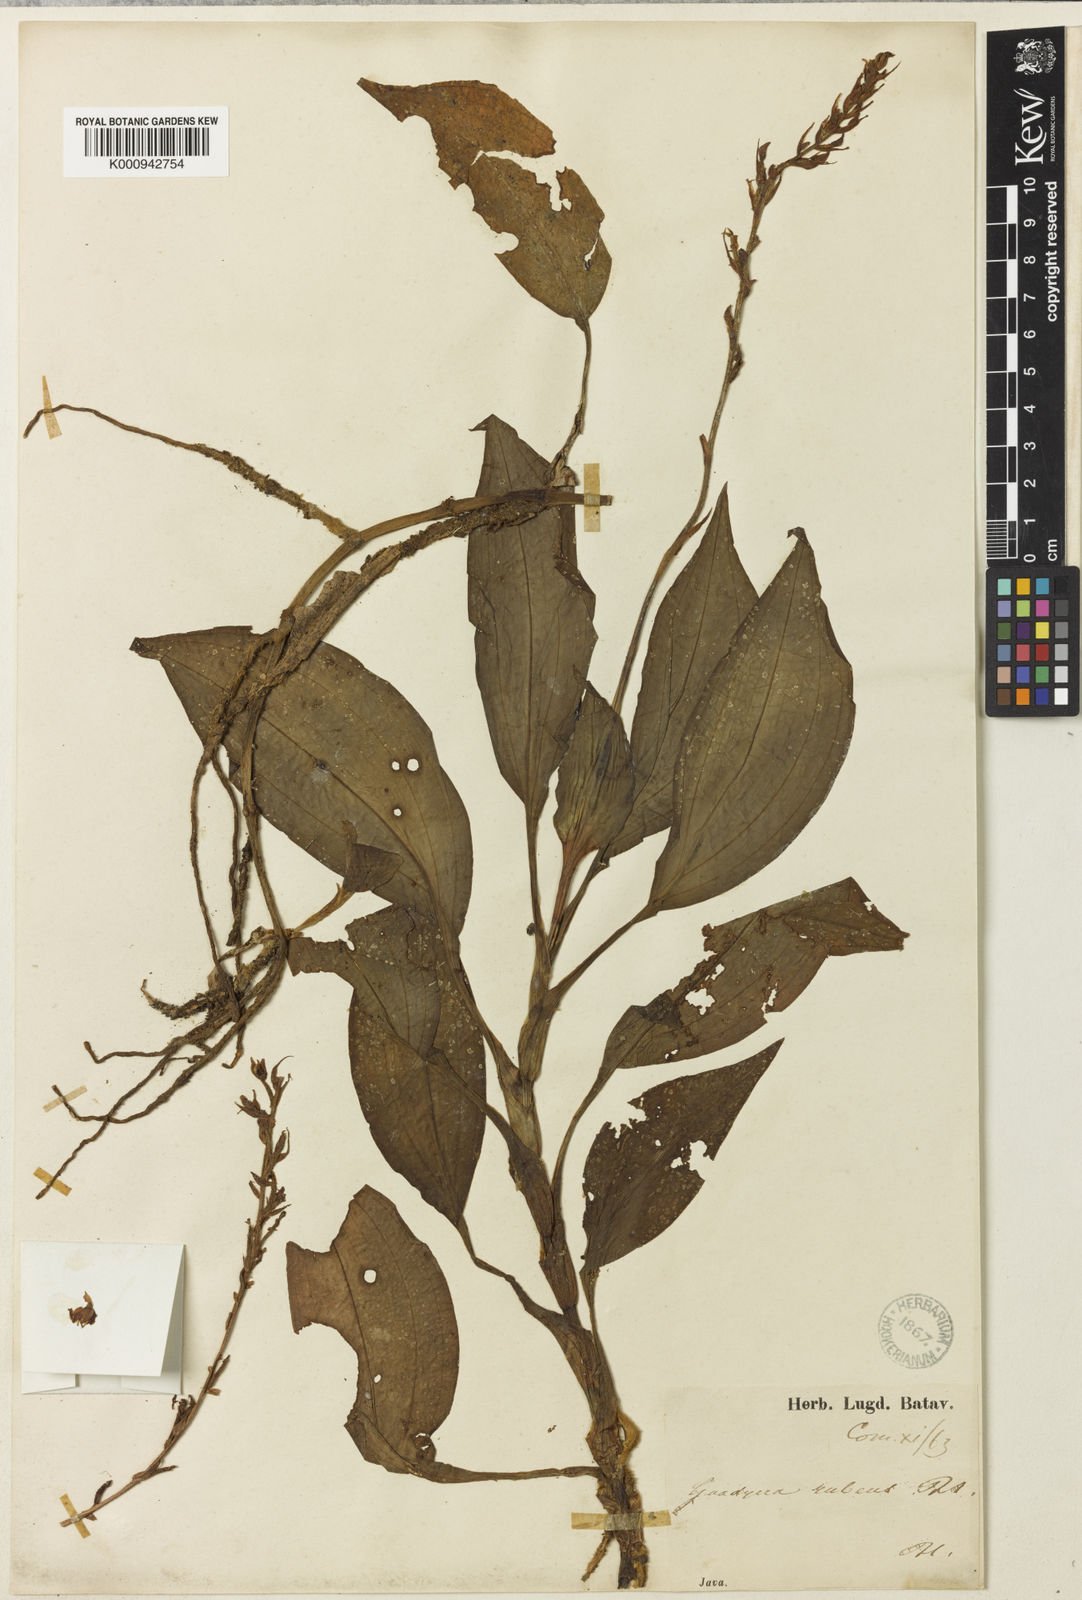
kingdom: Plantae
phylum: Tracheophyta
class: Liliopsida
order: Asparagales
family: Orchidaceae
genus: Goodyera
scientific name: Goodyera rubicunda
